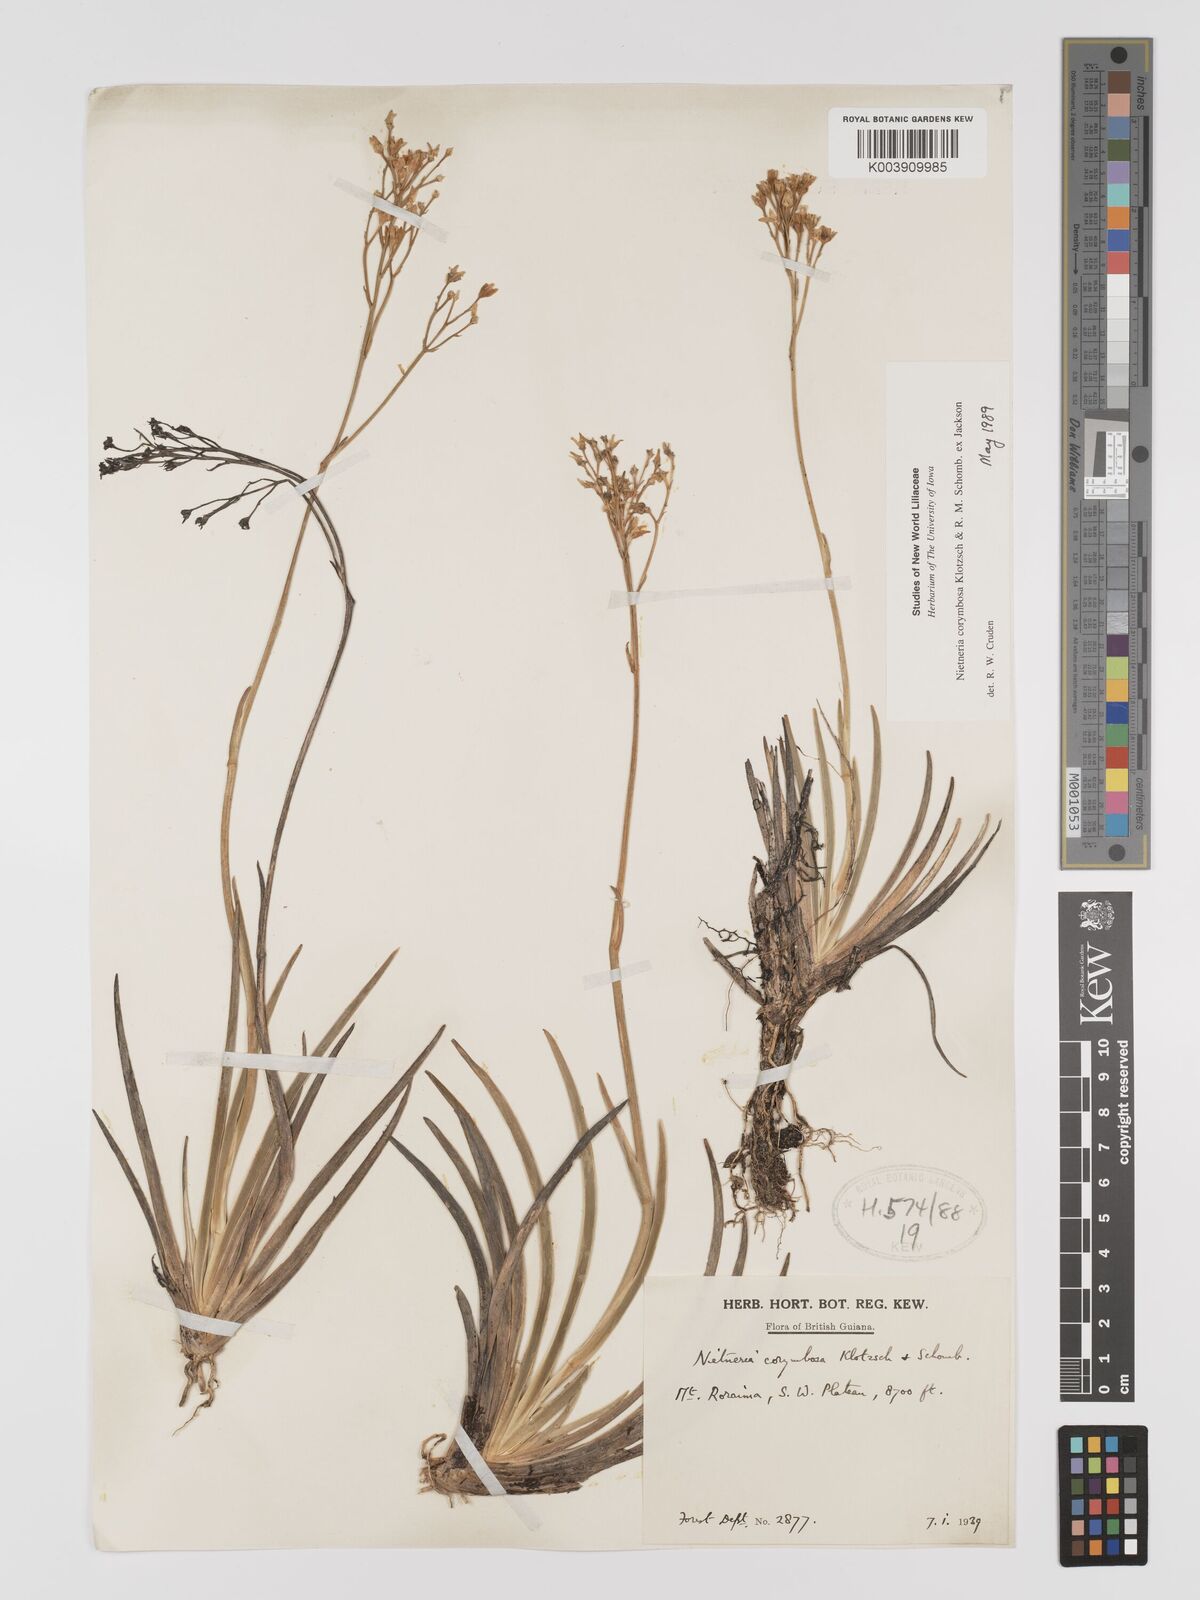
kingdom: Plantae
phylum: Tracheophyta
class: Liliopsida
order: Dioscoreales
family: Nartheciaceae
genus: Nietneria
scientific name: Nietneria corymbosa
